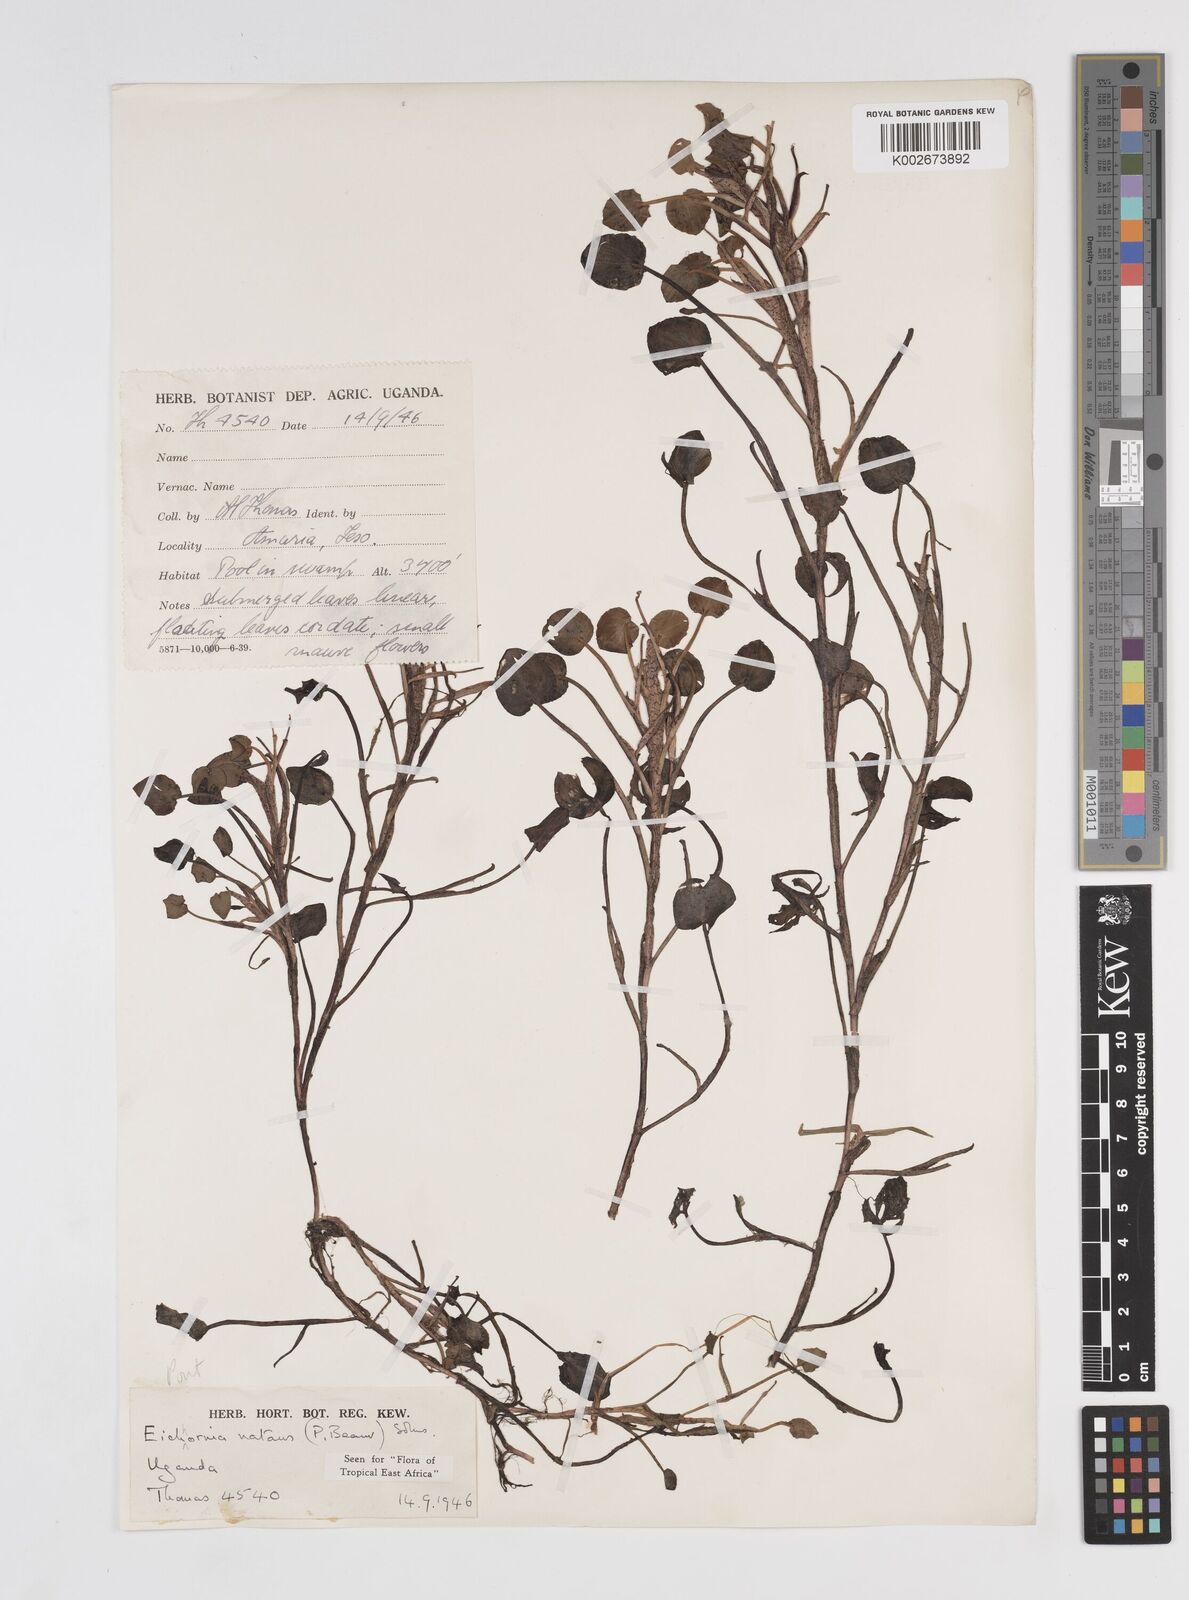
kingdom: Plantae
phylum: Tracheophyta
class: Liliopsida
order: Commelinales
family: Pontederiaceae
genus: Pontederia
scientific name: Pontederia diversifolia
